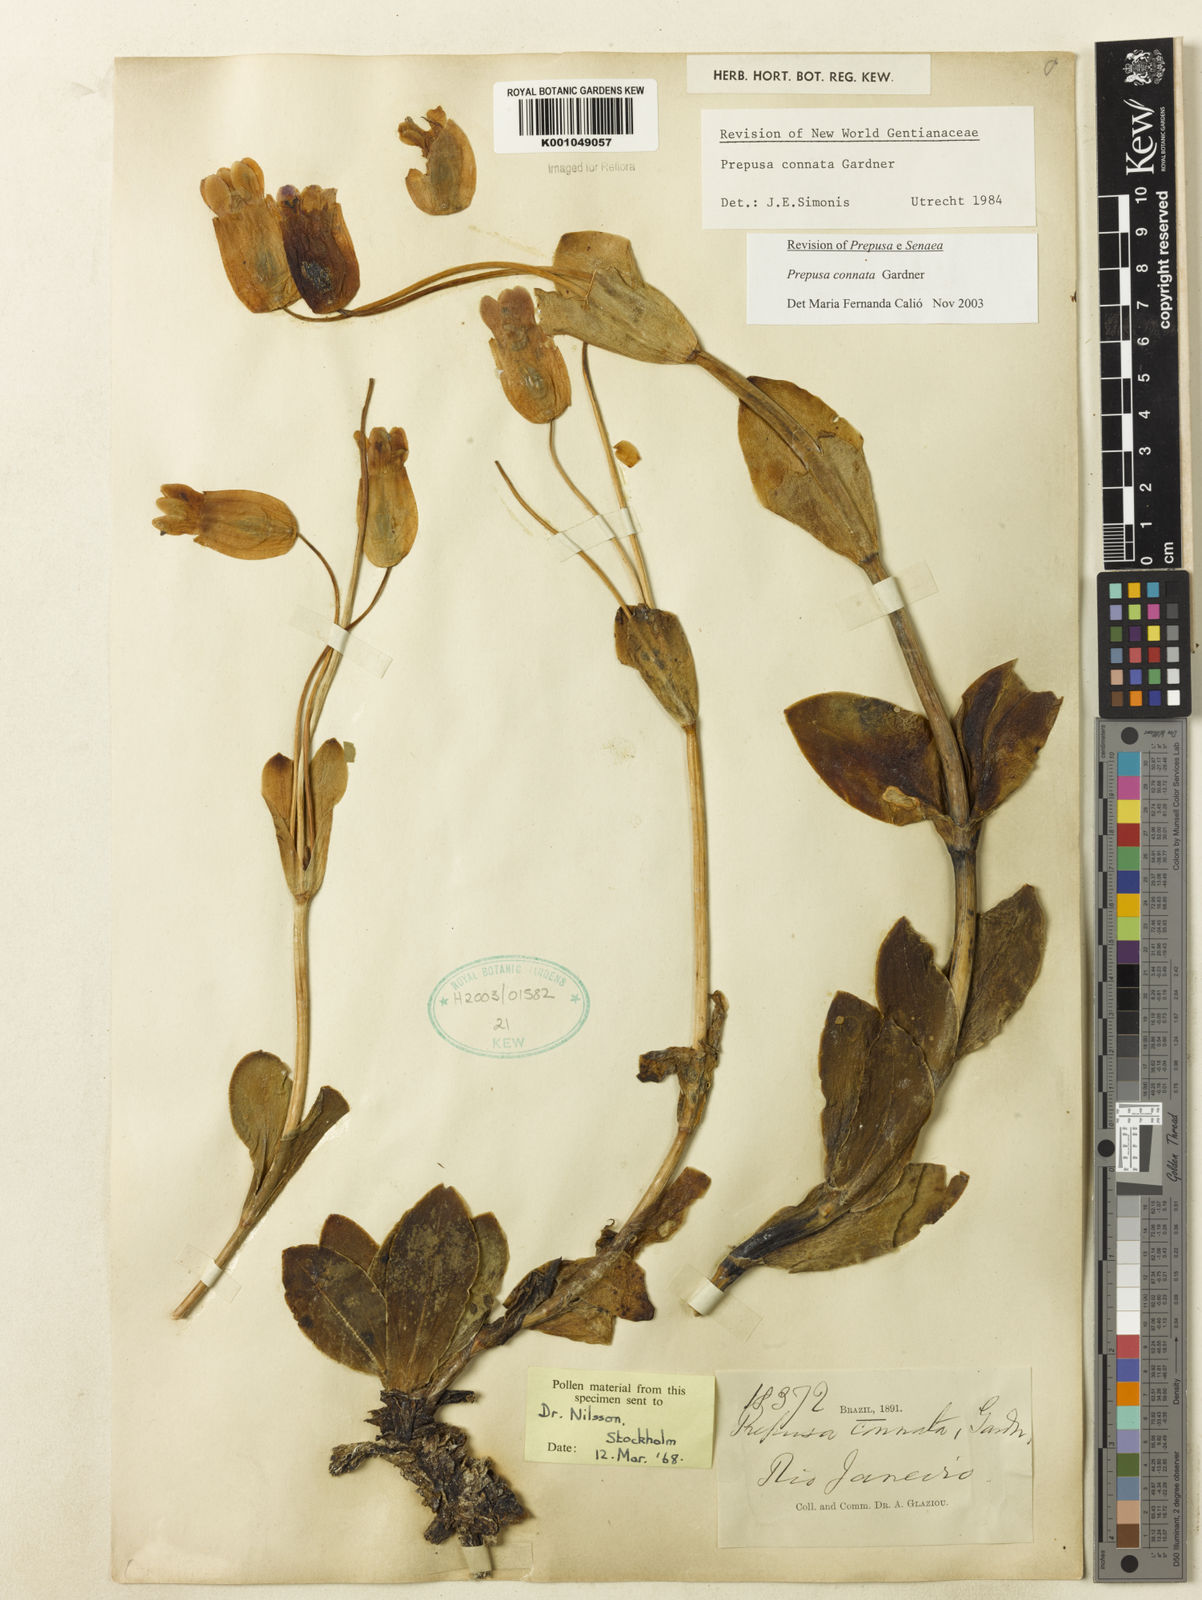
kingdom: Plantae
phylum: Tracheophyta
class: Magnoliopsida
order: Gentianales
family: Gentianaceae
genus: Prepusa
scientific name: Prepusa connata
